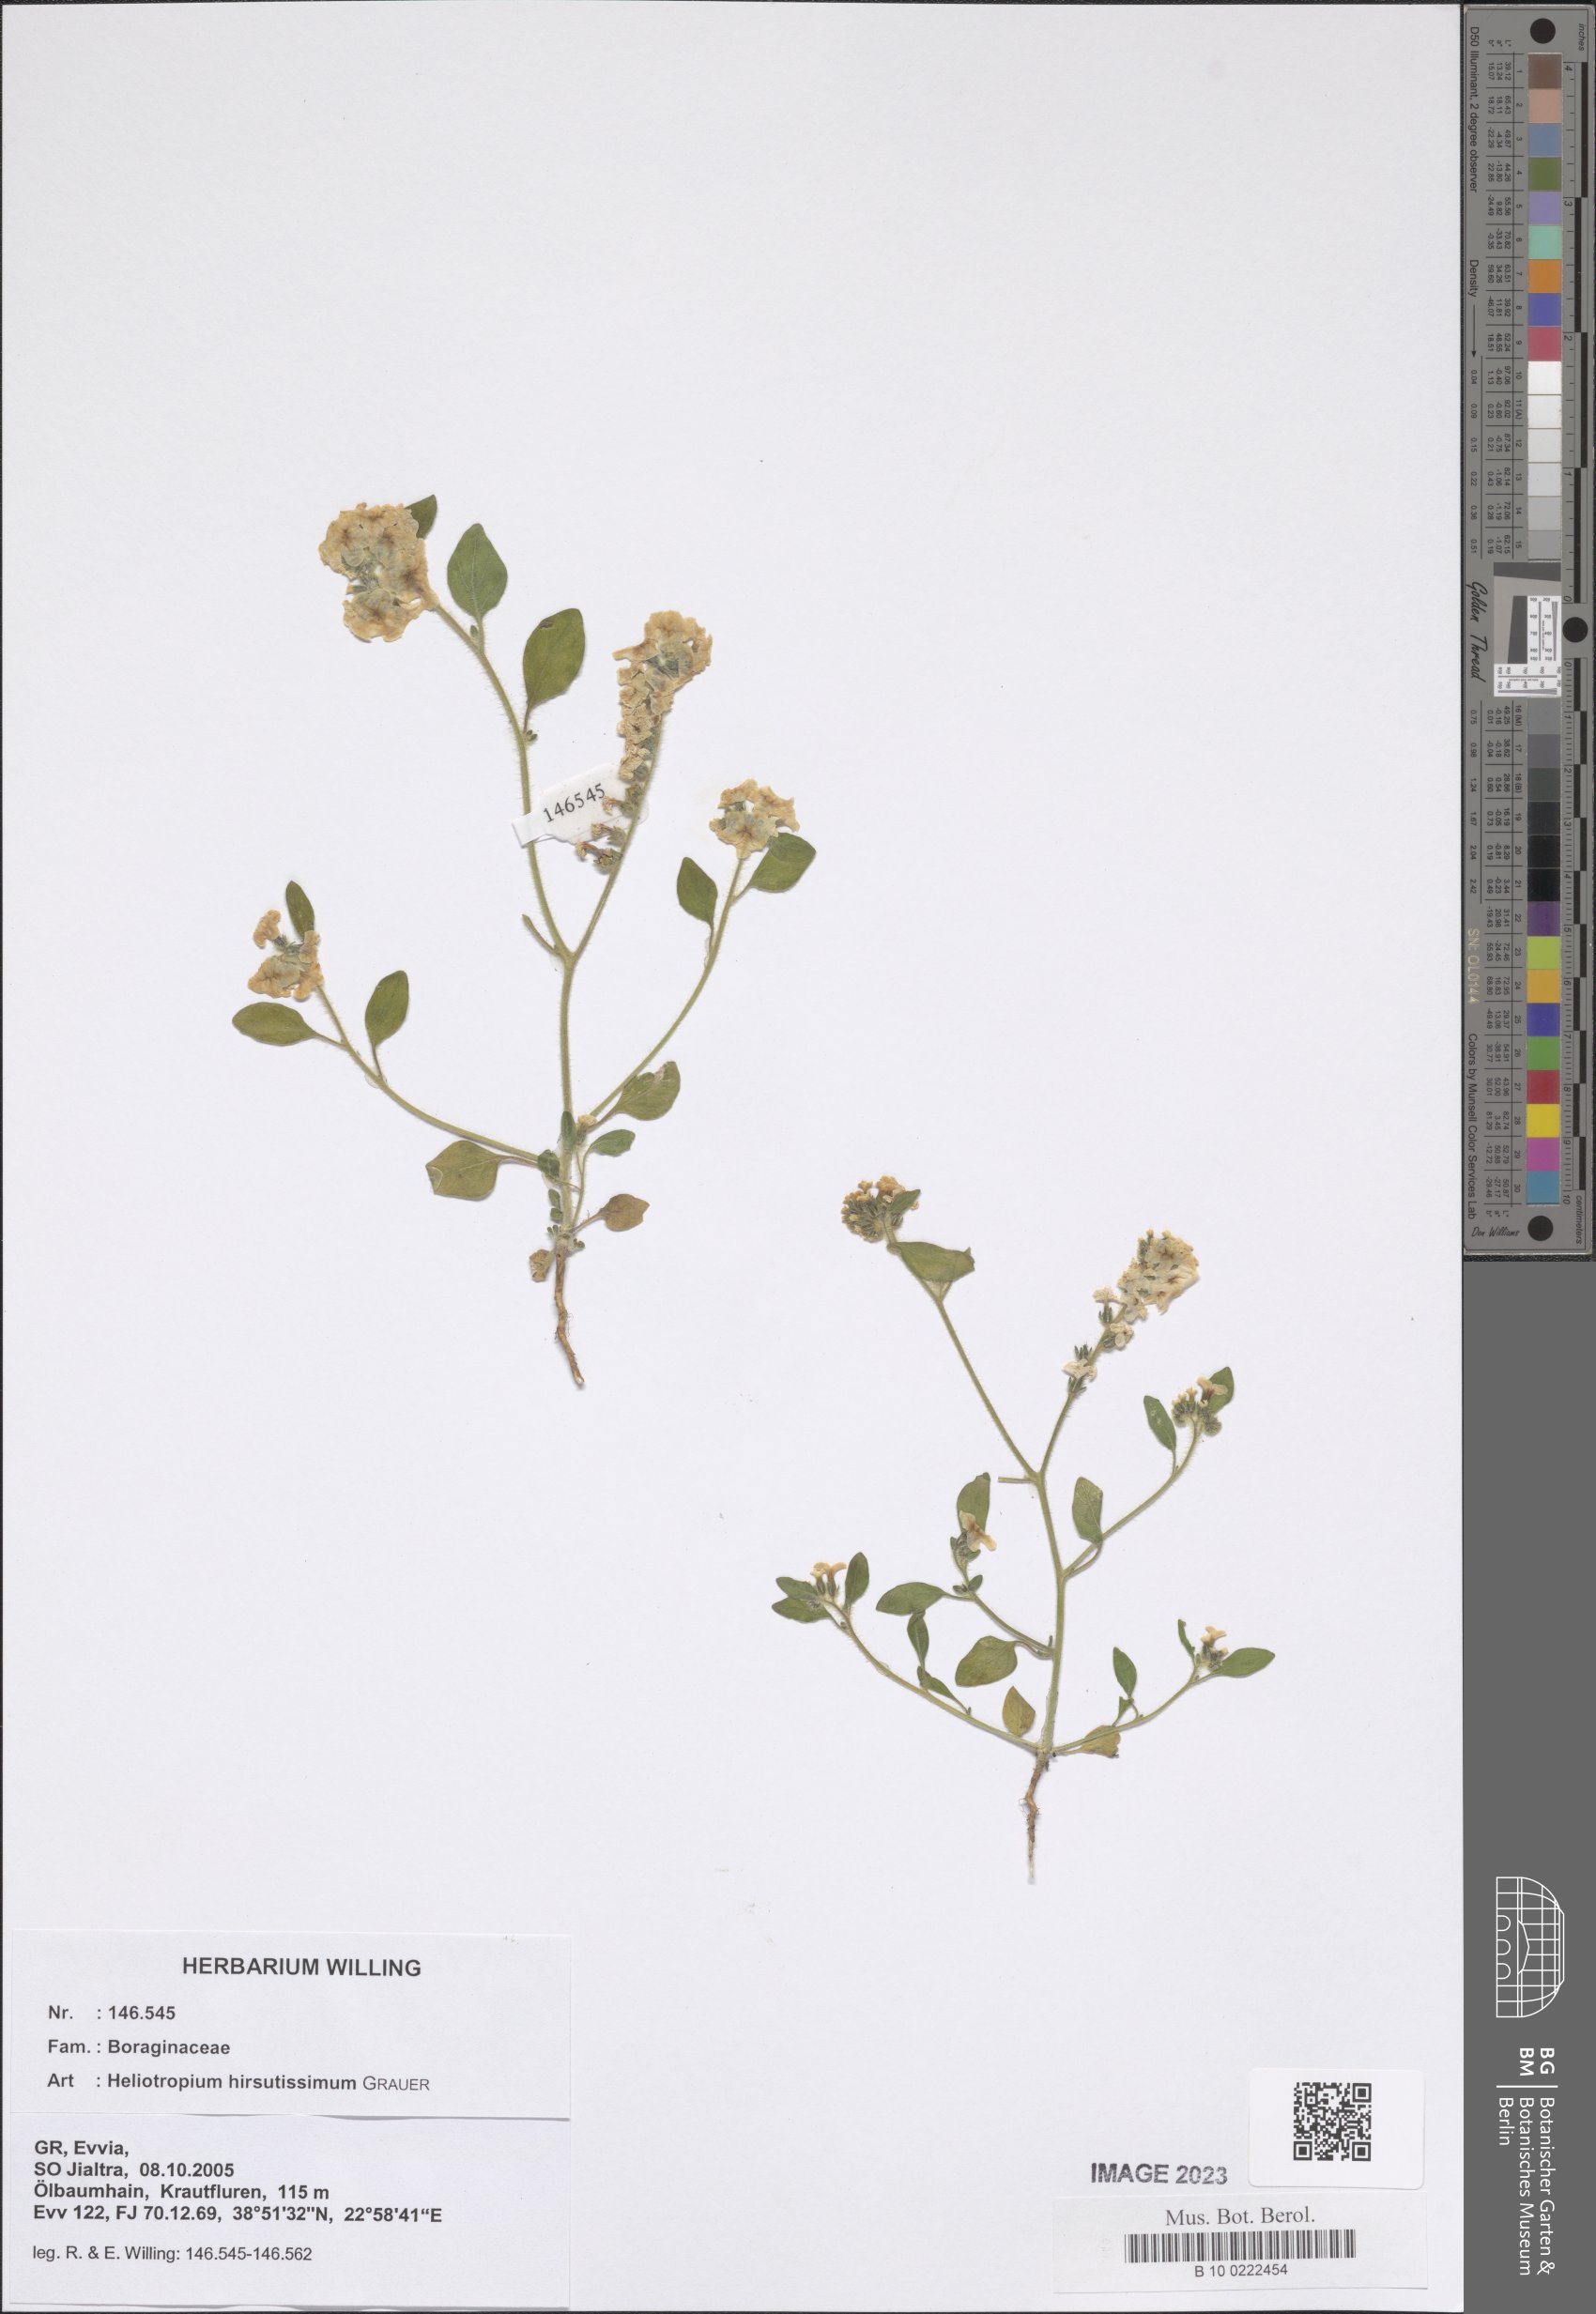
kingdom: Plantae
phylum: Tracheophyta
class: Magnoliopsida
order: Boraginales
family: Heliotropiaceae
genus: Heliotropium
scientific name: Heliotropium hirsutissimum
